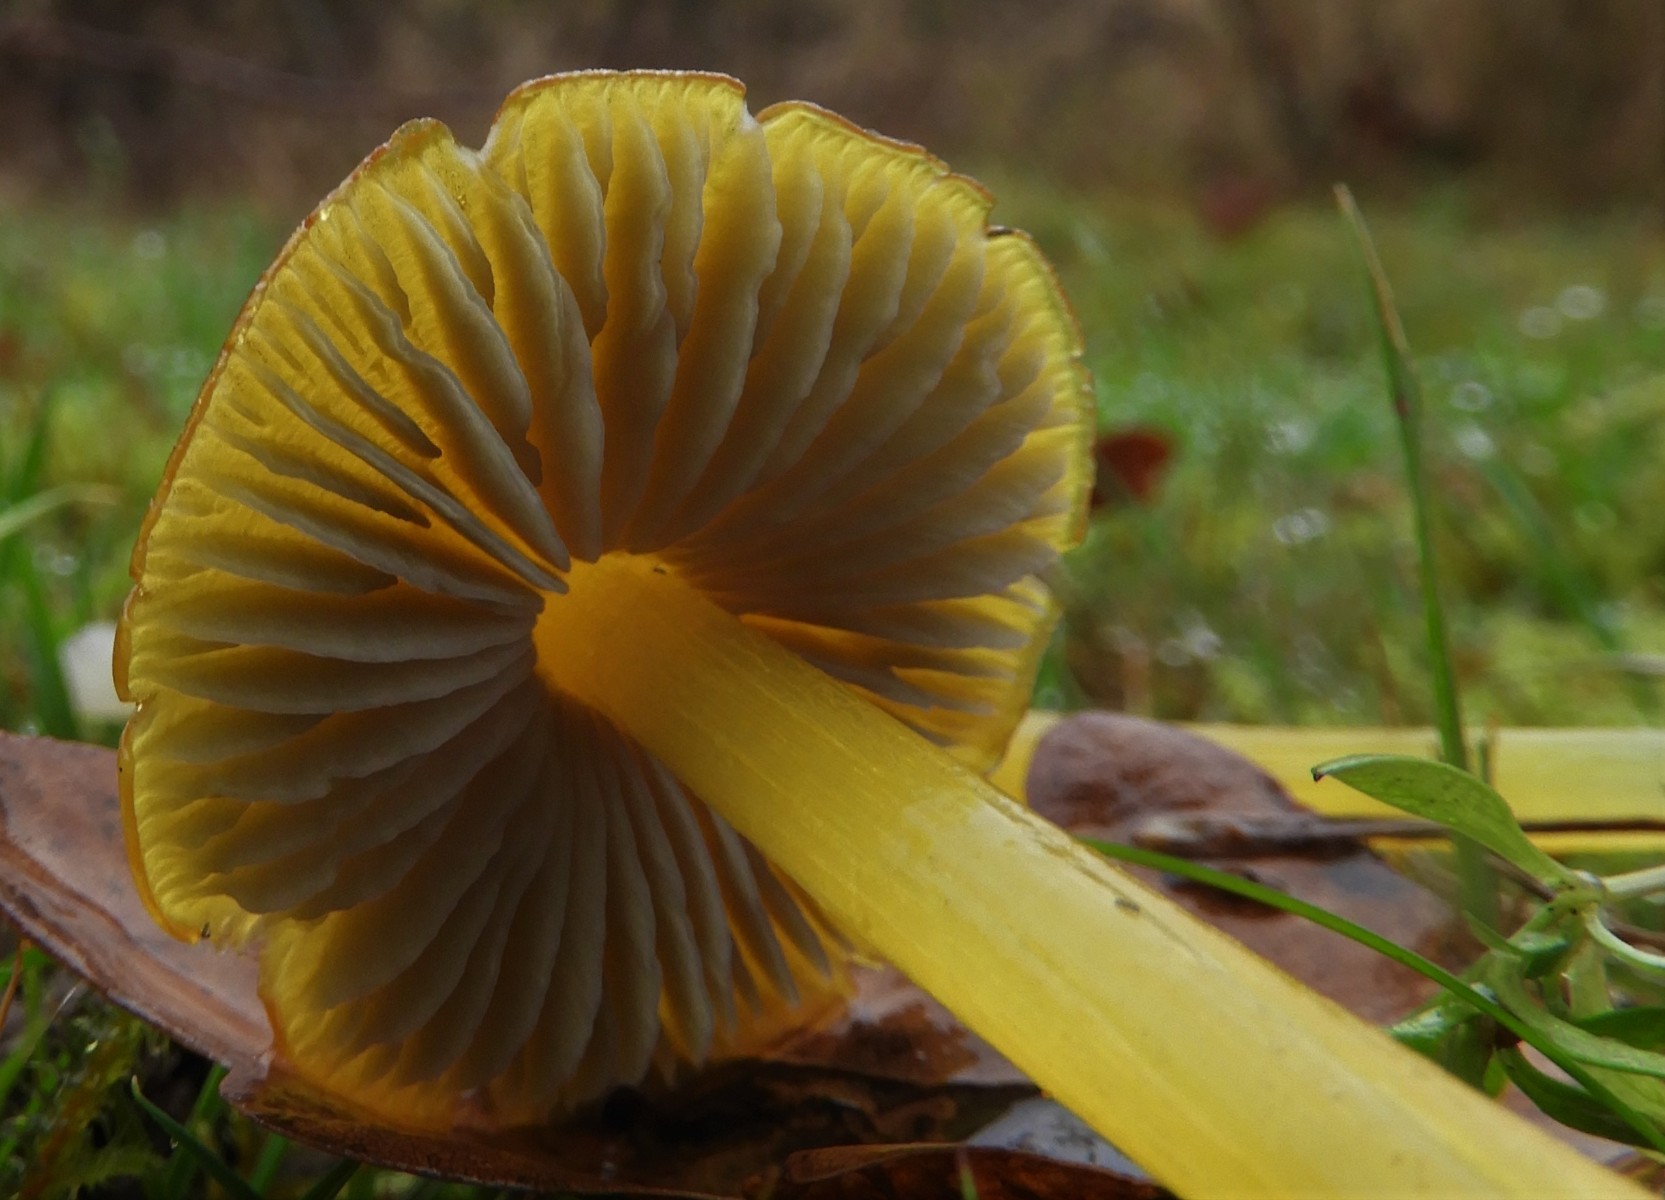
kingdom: Fungi
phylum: Basidiomycota
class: Agaricomycetes
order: Agaricales
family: Hygrophoraceae
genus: Hygrocybe
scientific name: Hygrocybe conica
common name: kegle-vokshat
